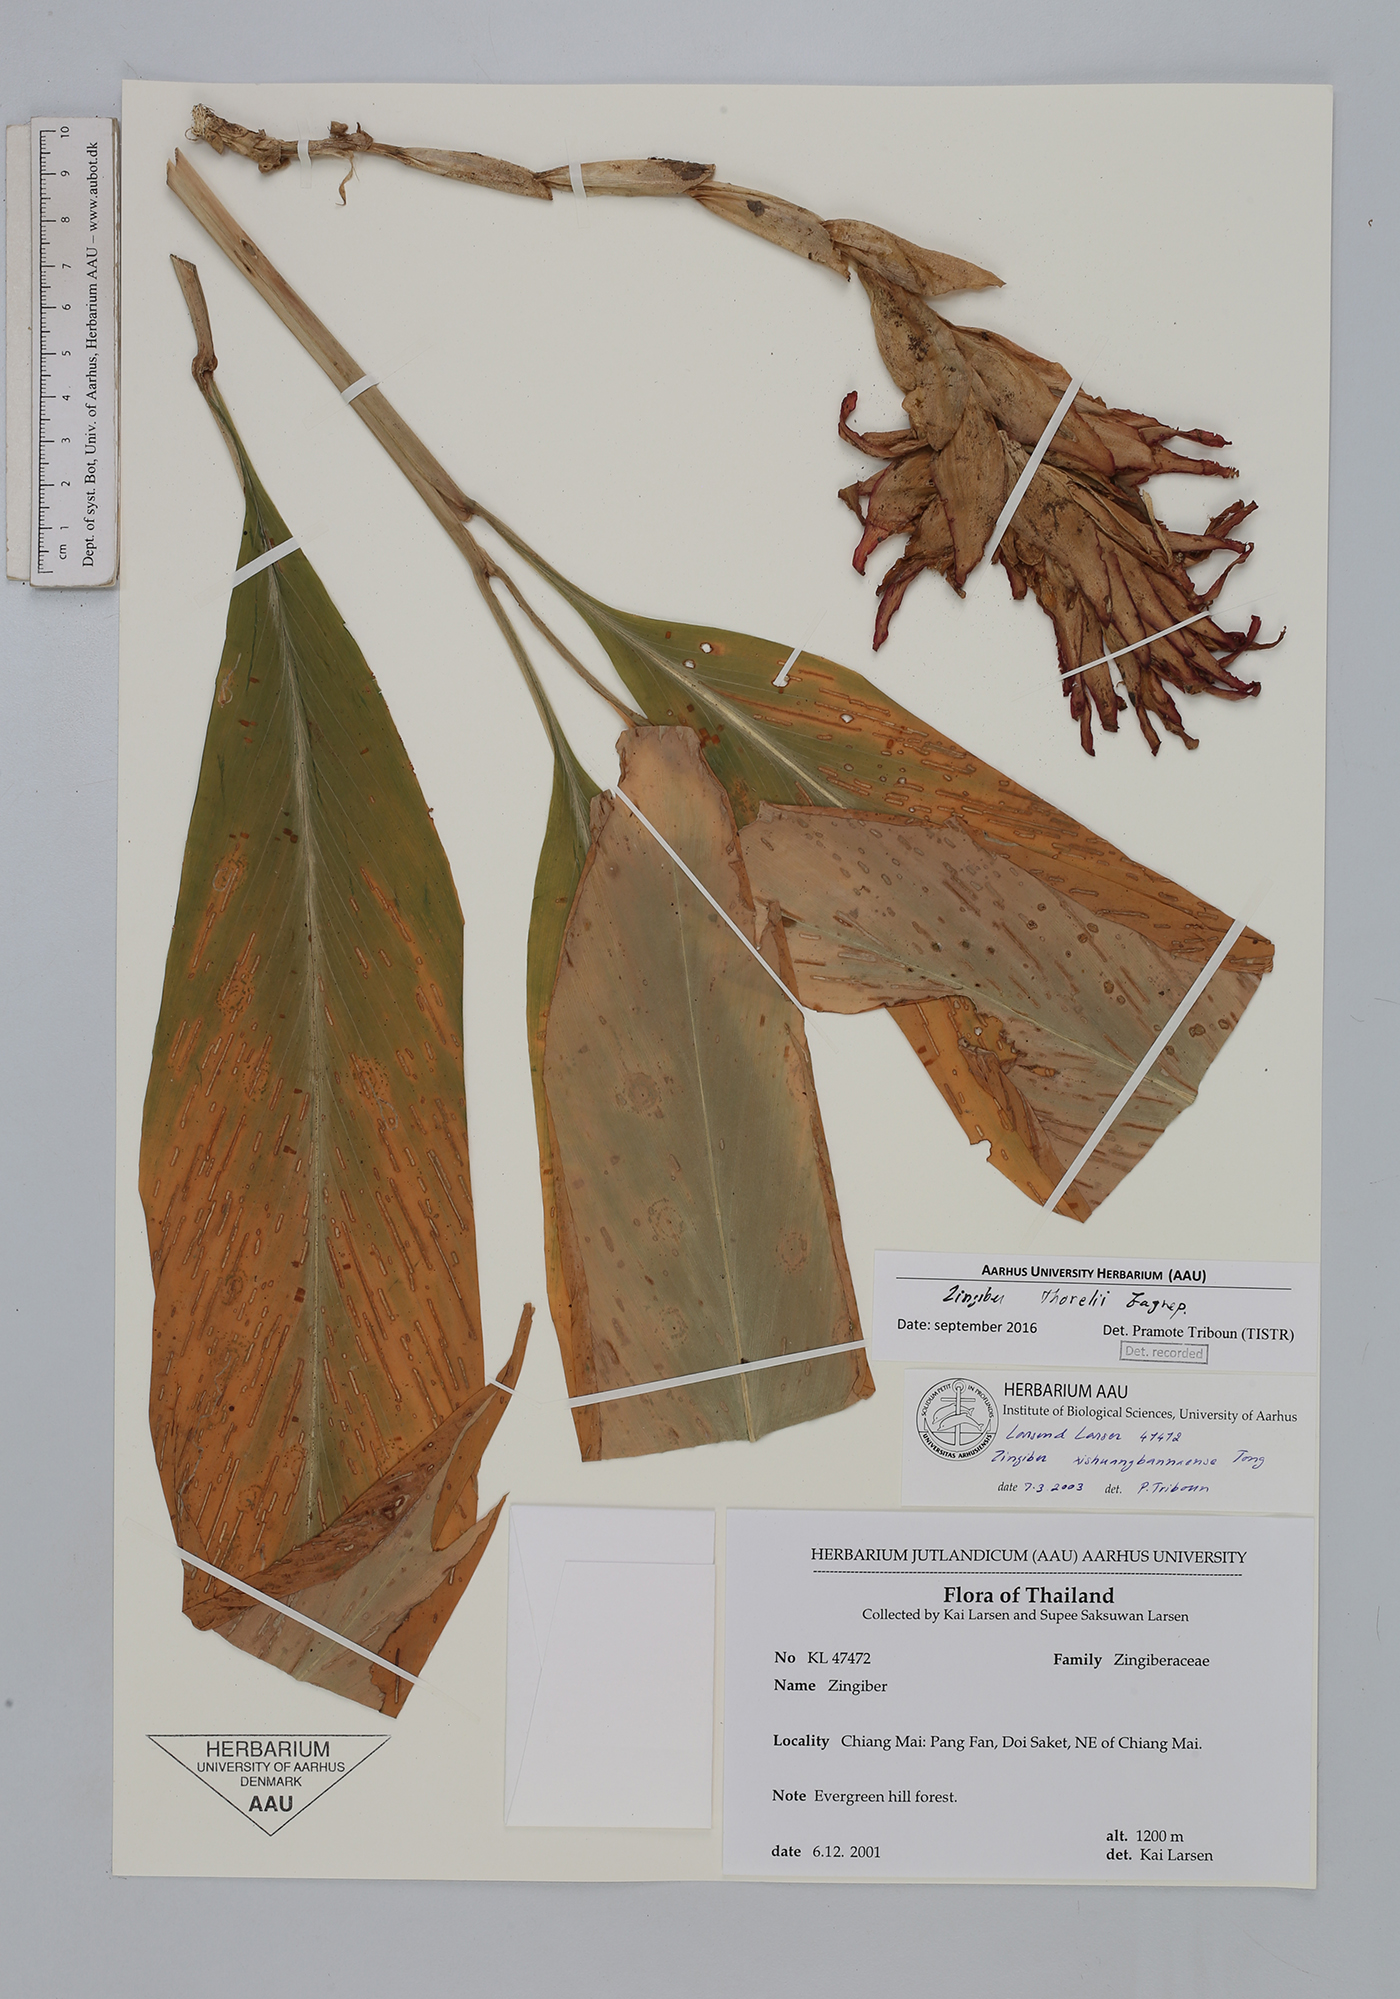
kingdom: Plantae
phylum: Tracheophyta
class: Liliopsida
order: Zingiberales
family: Zingiberaceae
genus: Zingiber
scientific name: Zingiber thorelii
